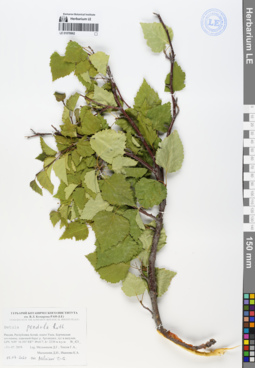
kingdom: Plantae
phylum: Tracheophyta
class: Magnoliopsida
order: Fagales
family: Betulaceae
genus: Betula
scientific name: Betula pendula
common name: Silver birch
